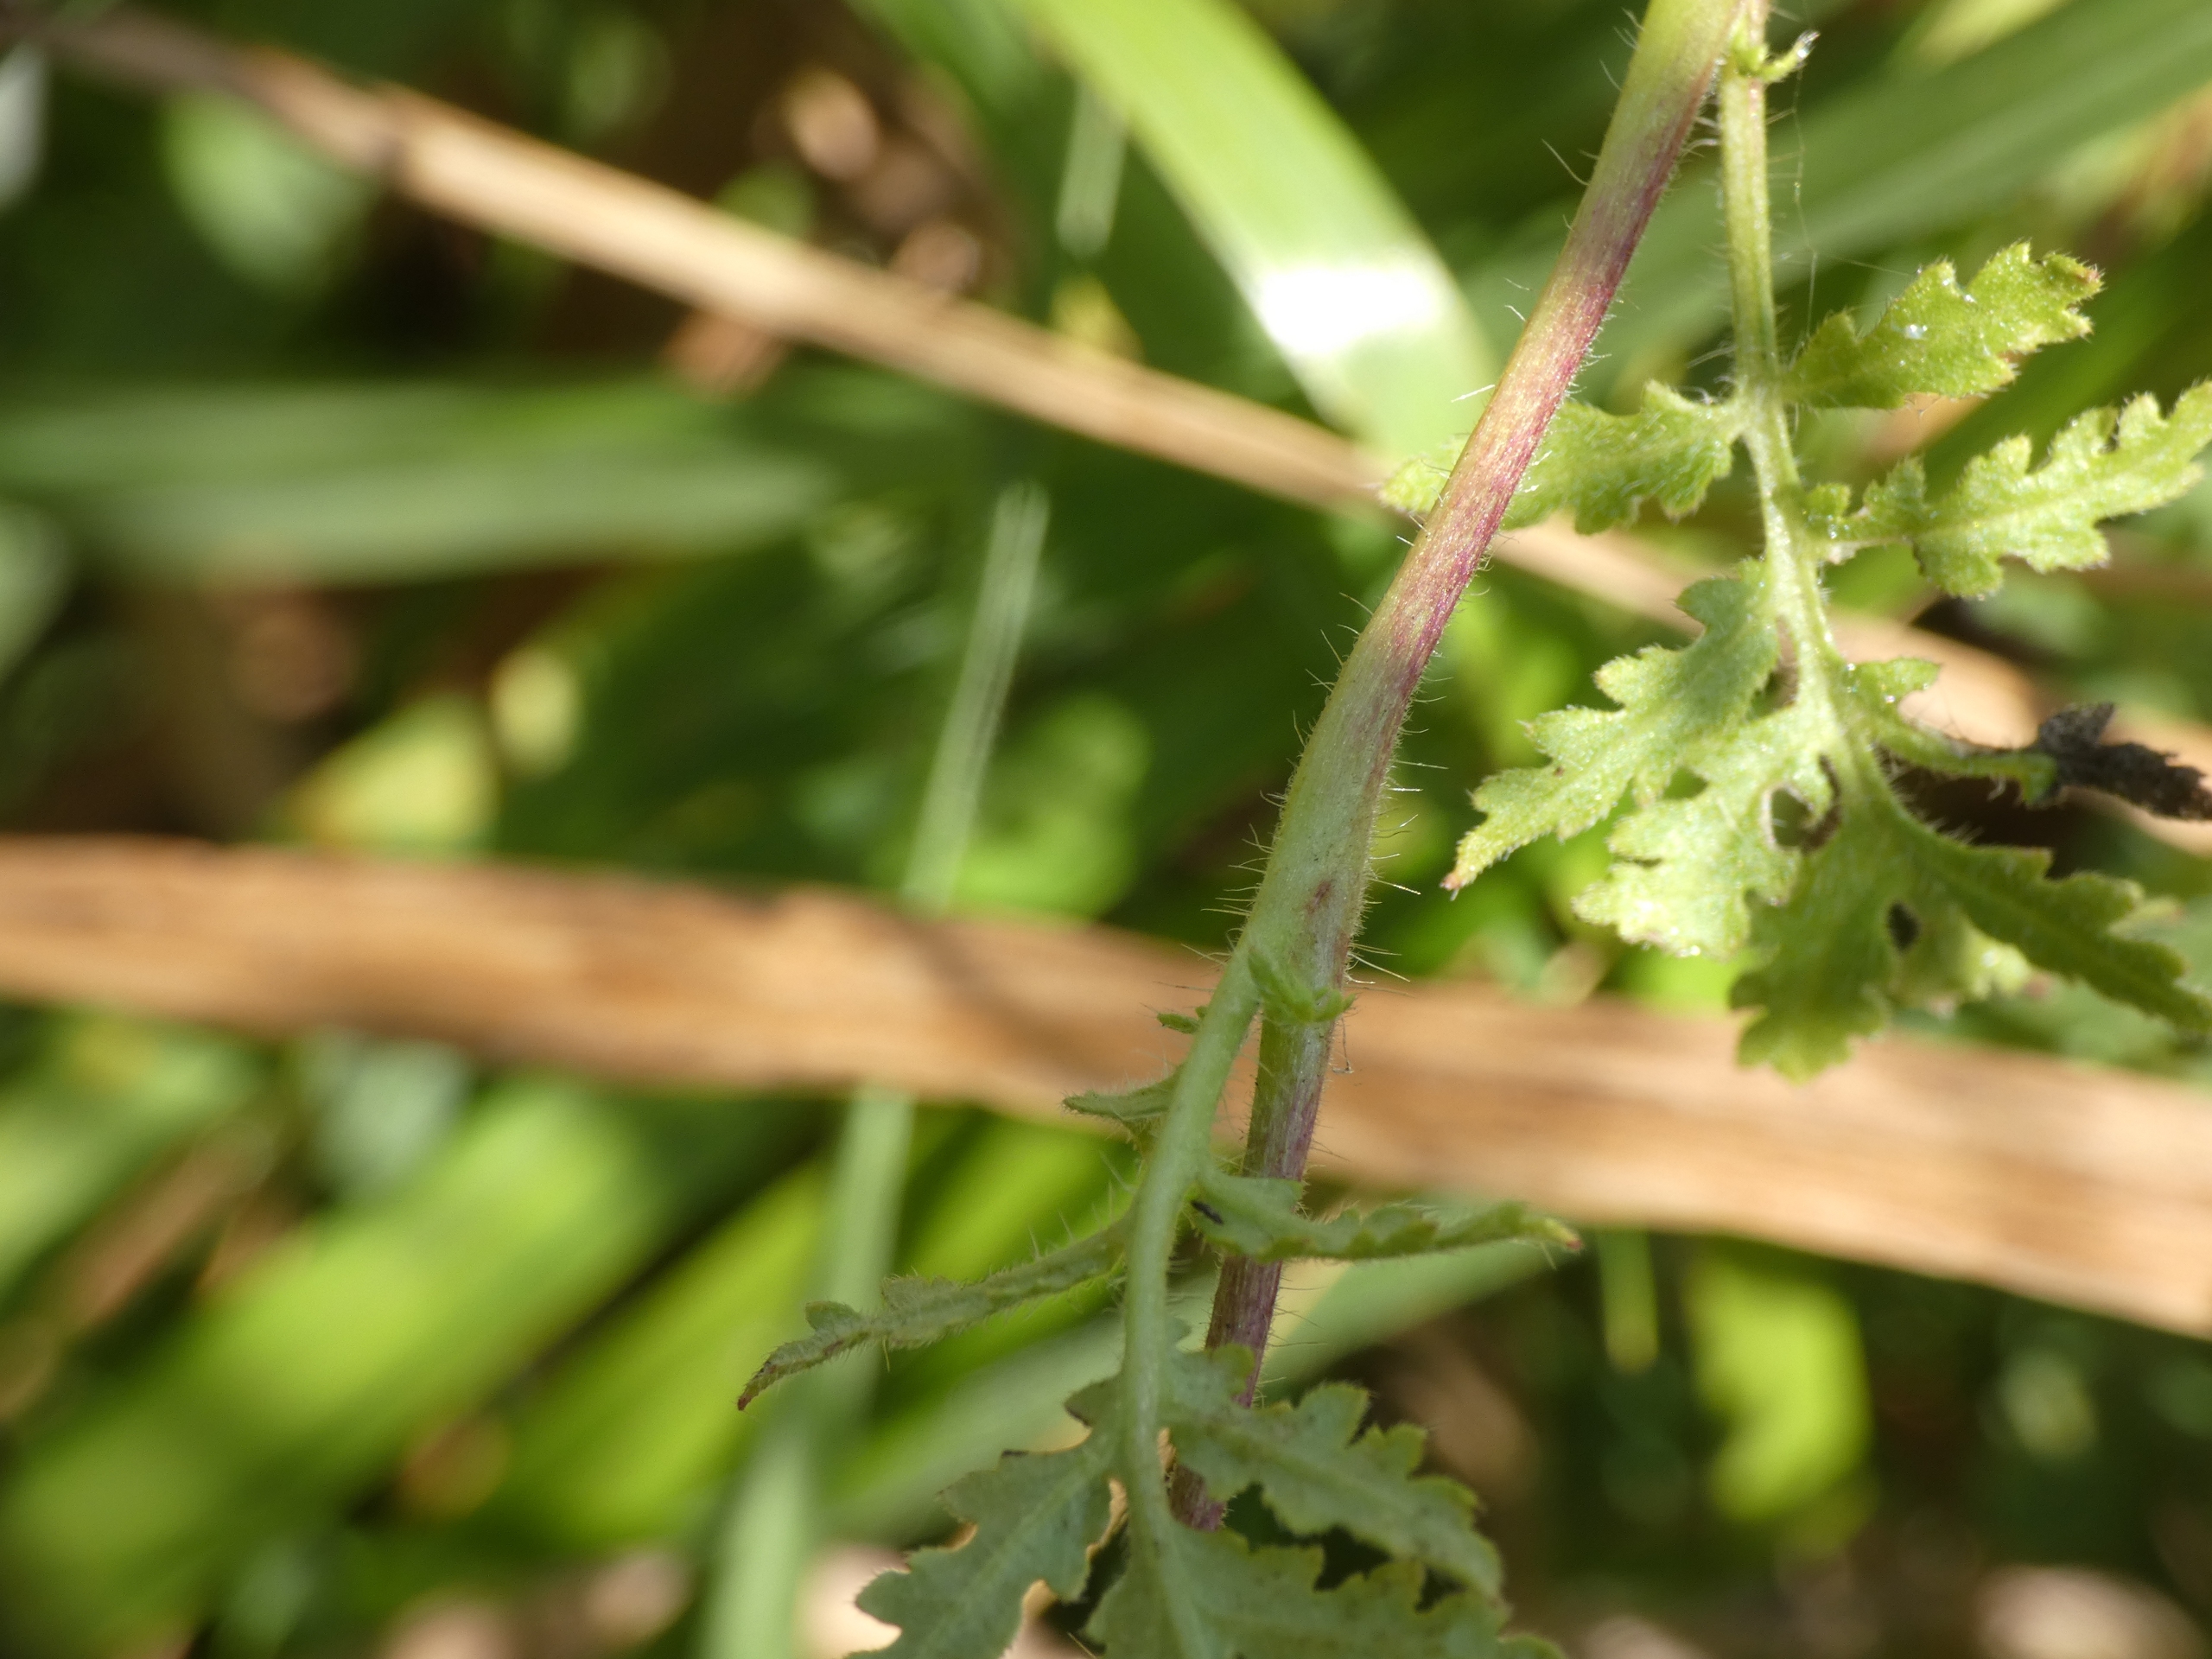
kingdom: Plantae
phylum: Tracheophyta
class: Magnoliopsida
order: Boraginales
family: Hydrophyllaceae
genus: Phacelia
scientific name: Phacelia tanacetifolia
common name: Honningurt
